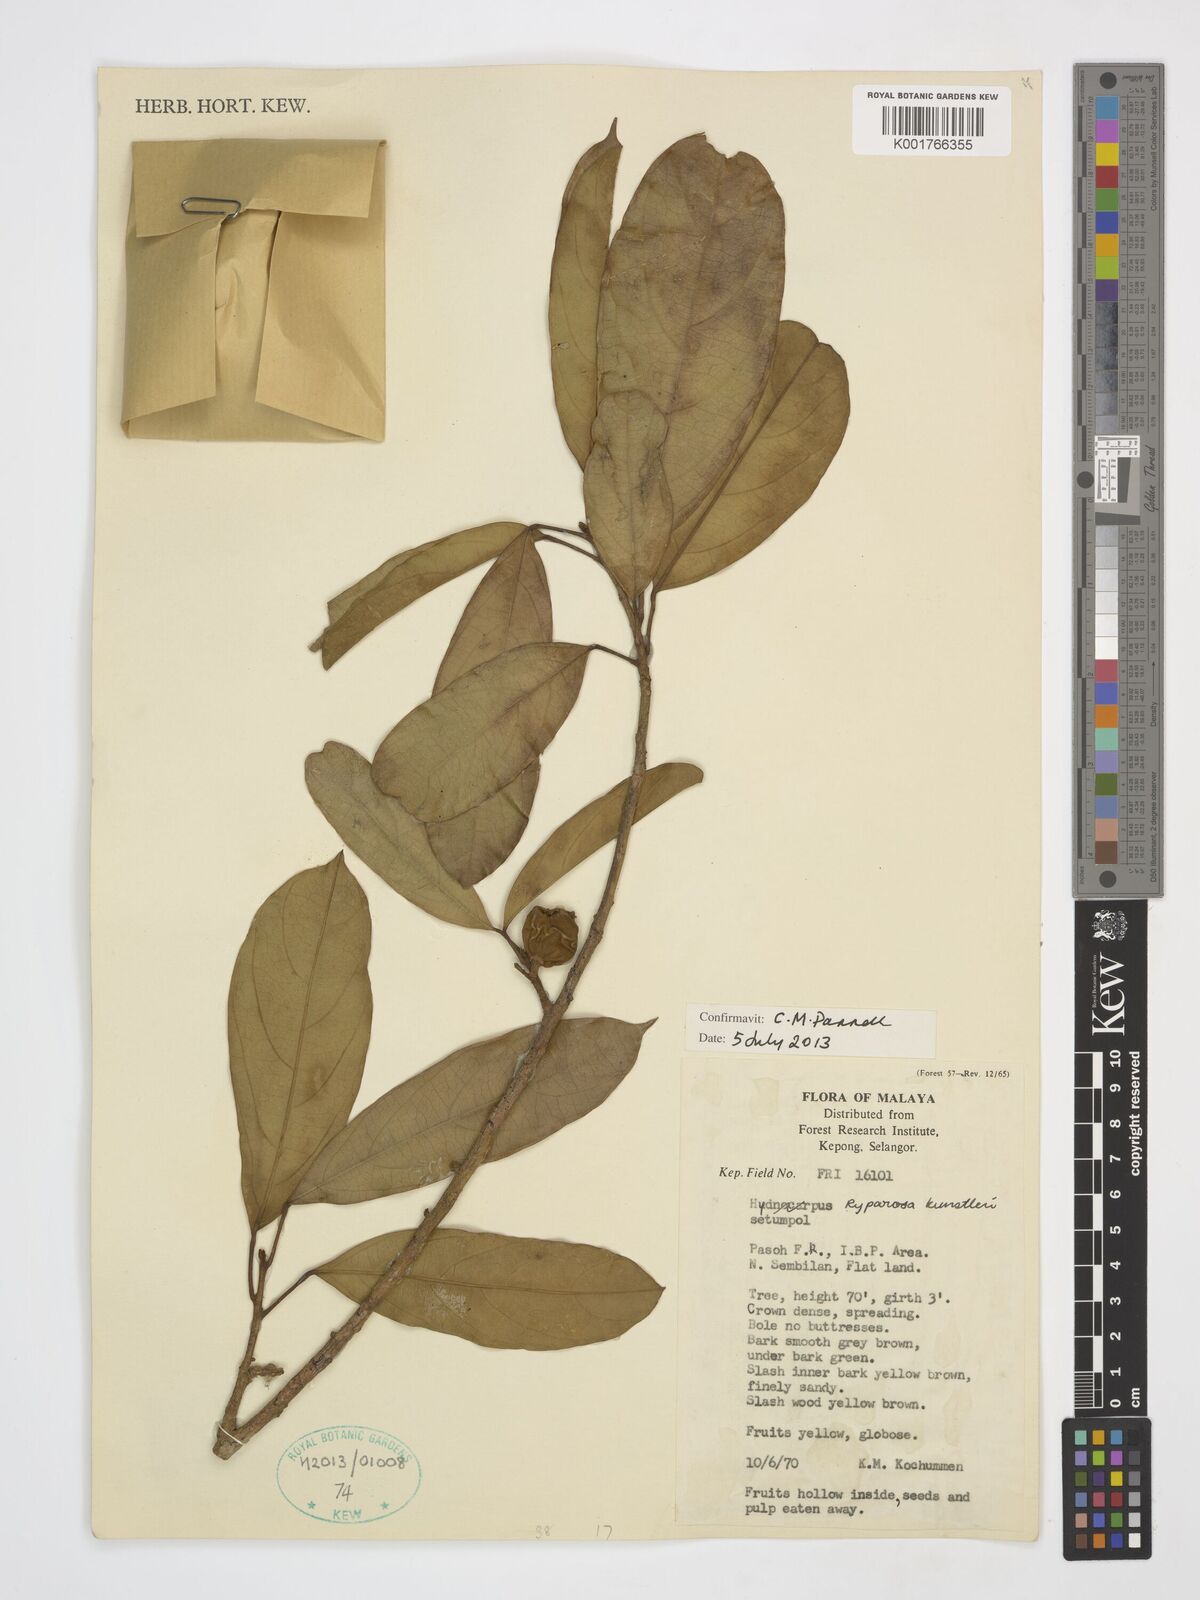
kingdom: Plantae
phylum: Tracheophyta
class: Magnoliopsida
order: Malpighiales
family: Achariaceae
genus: Ryparosa
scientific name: Ryparosa kunstleri
